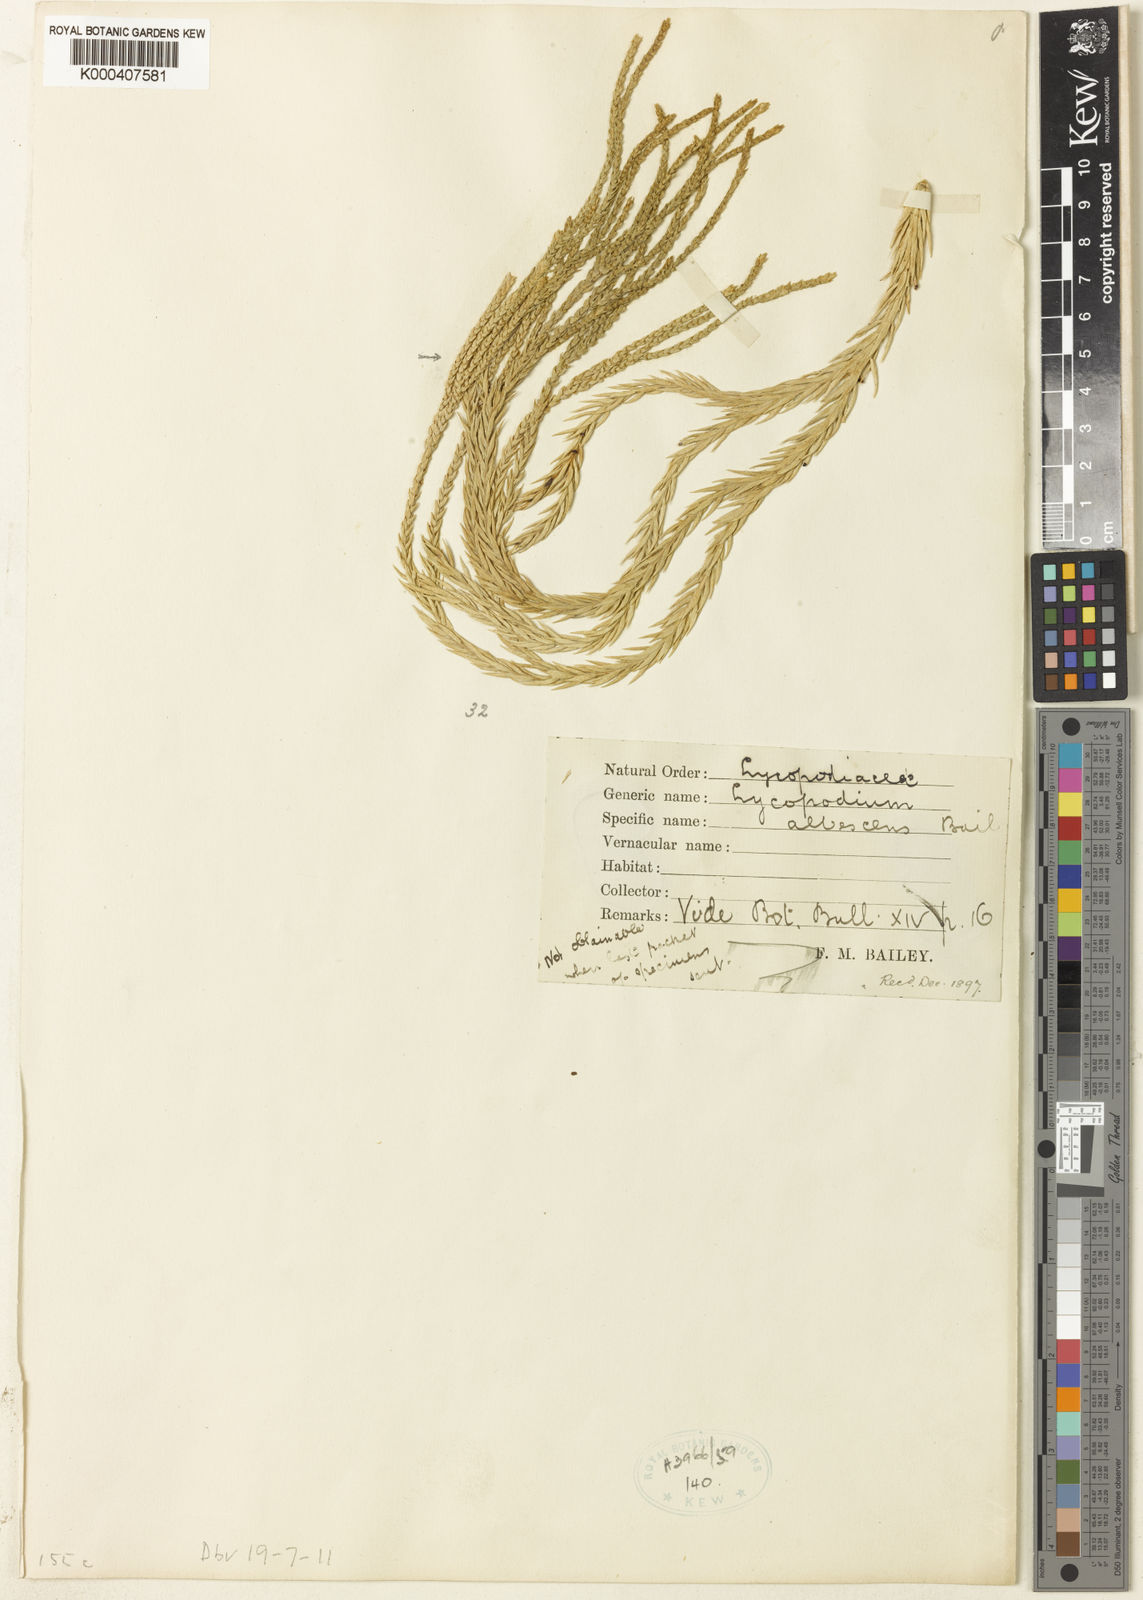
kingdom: Plantae
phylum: Tracheophyta
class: Lycopodiopsida
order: Lycopodiales
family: Lycopodiaceae
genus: Lycopodium
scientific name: Lycopodium
